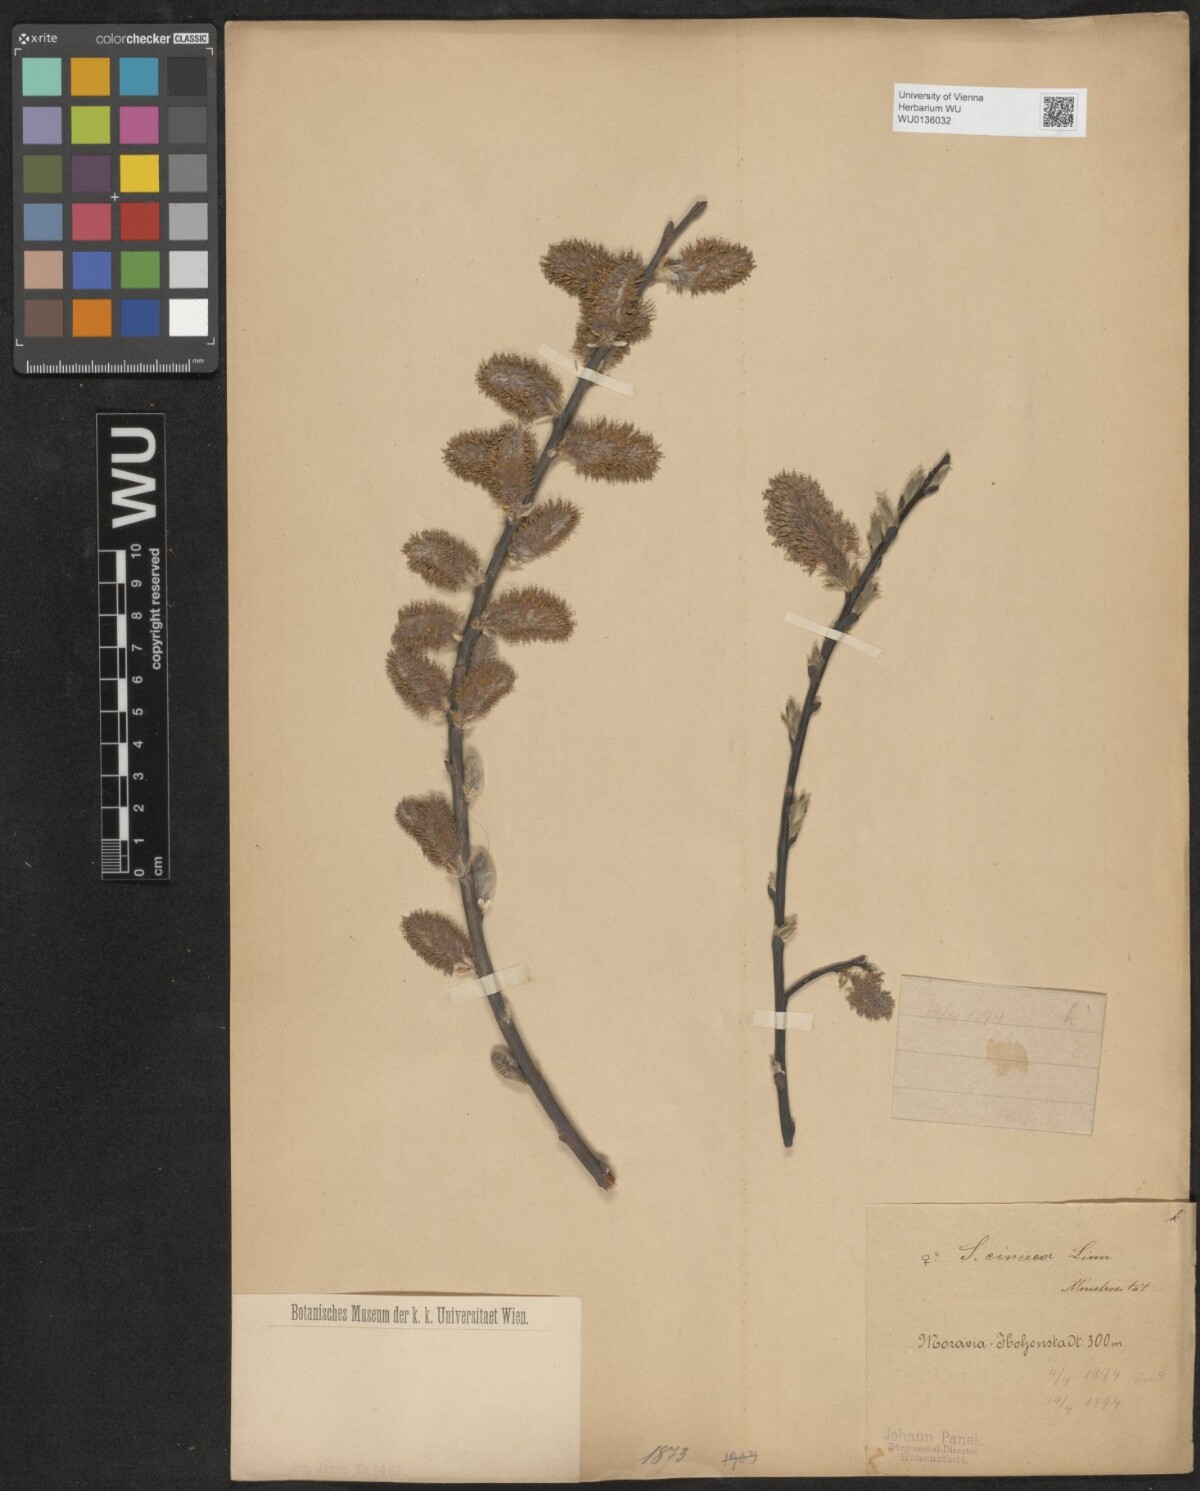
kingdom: Plantae
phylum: Tracheophyta
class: Magnoliopsida
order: Malpighiales
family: Salicaceae
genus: Salix
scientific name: Salix cinerea
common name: Common sallow
